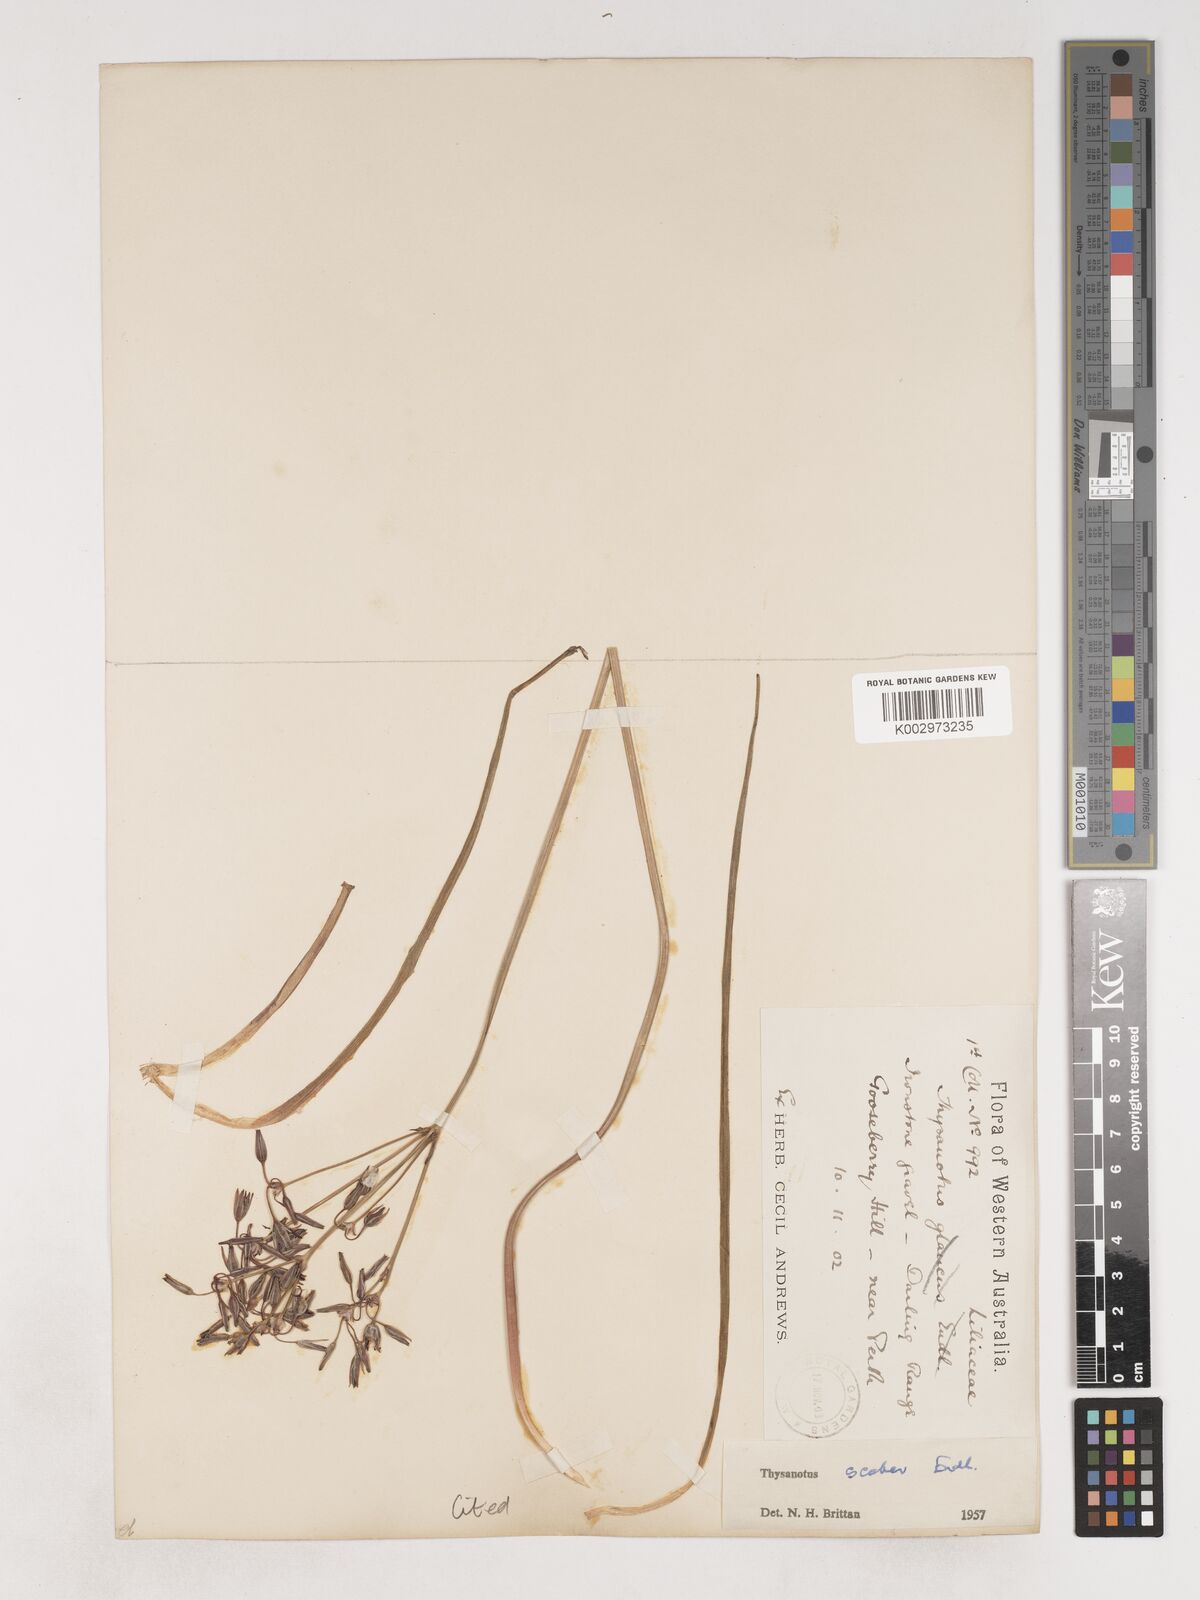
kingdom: Plantae
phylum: Tracheophyta
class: Liliopsida
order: Asparagales
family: Asparagaceae
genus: Thysanotus
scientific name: Thysanotus scaber
